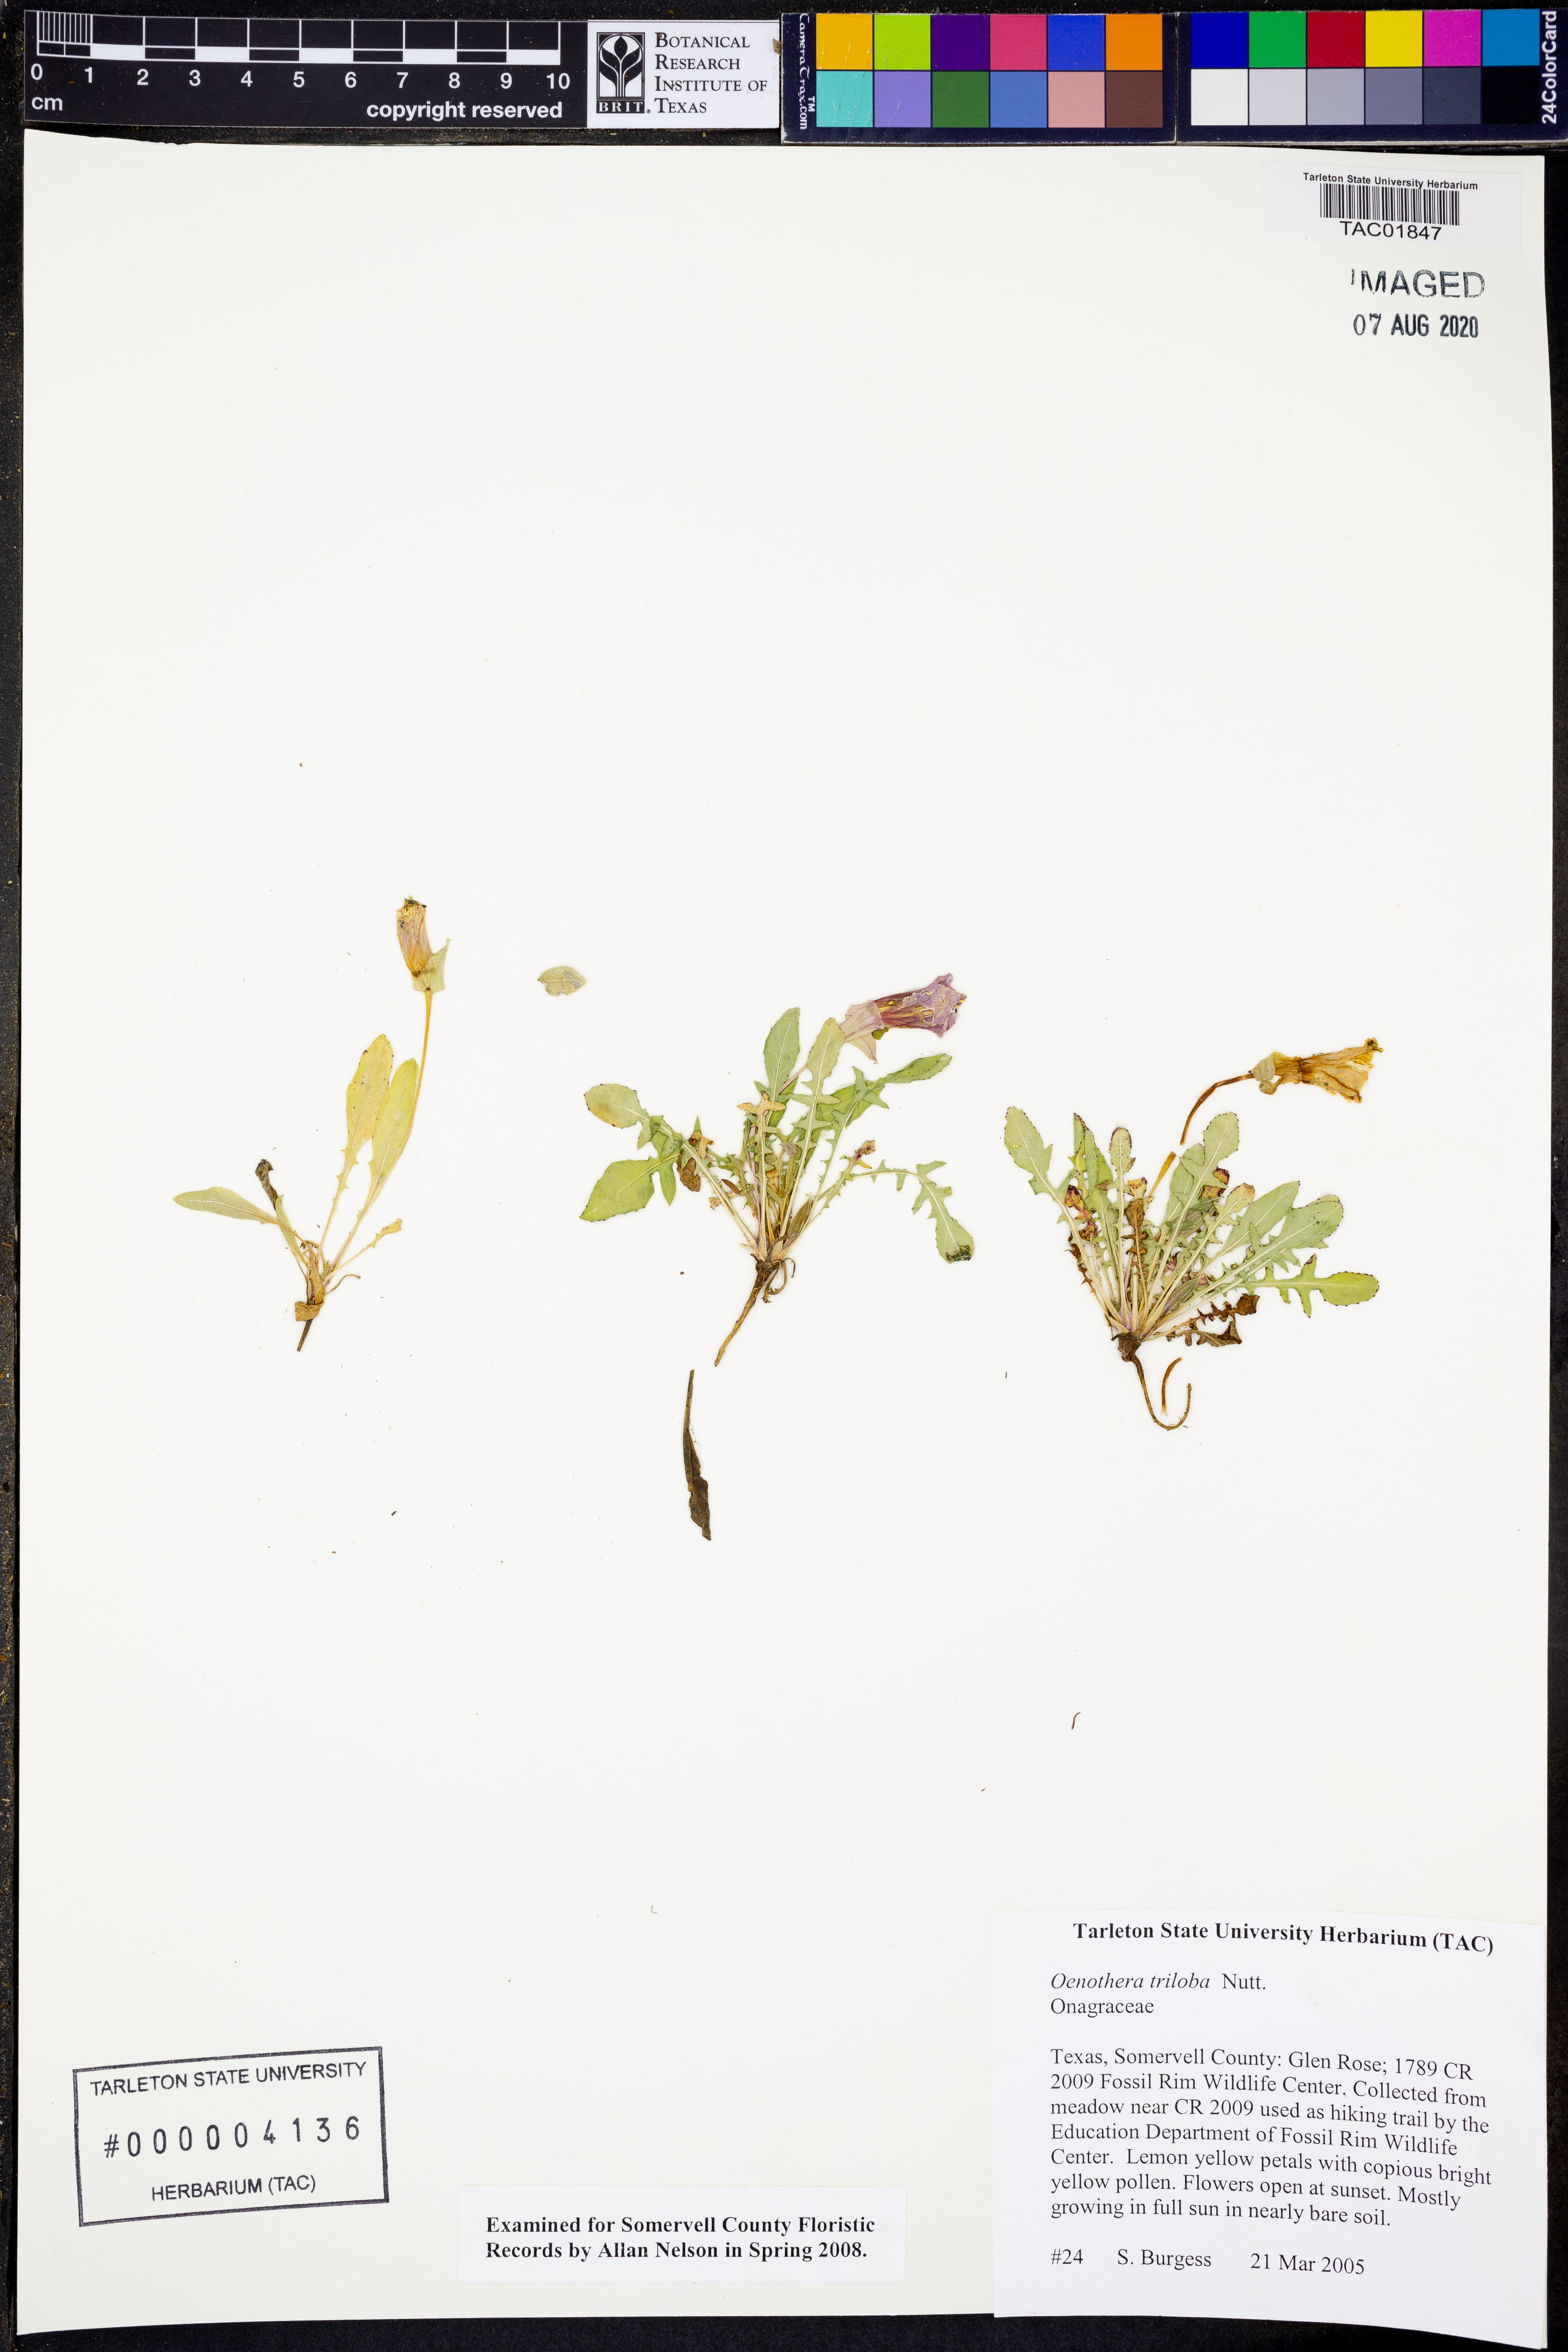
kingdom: Plantae
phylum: Tracheophyta
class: Magnoliopsida
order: Myrtales
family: Onagraceae
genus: Oenothera
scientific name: Oenothera triloba
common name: Sessile evening-primrose
